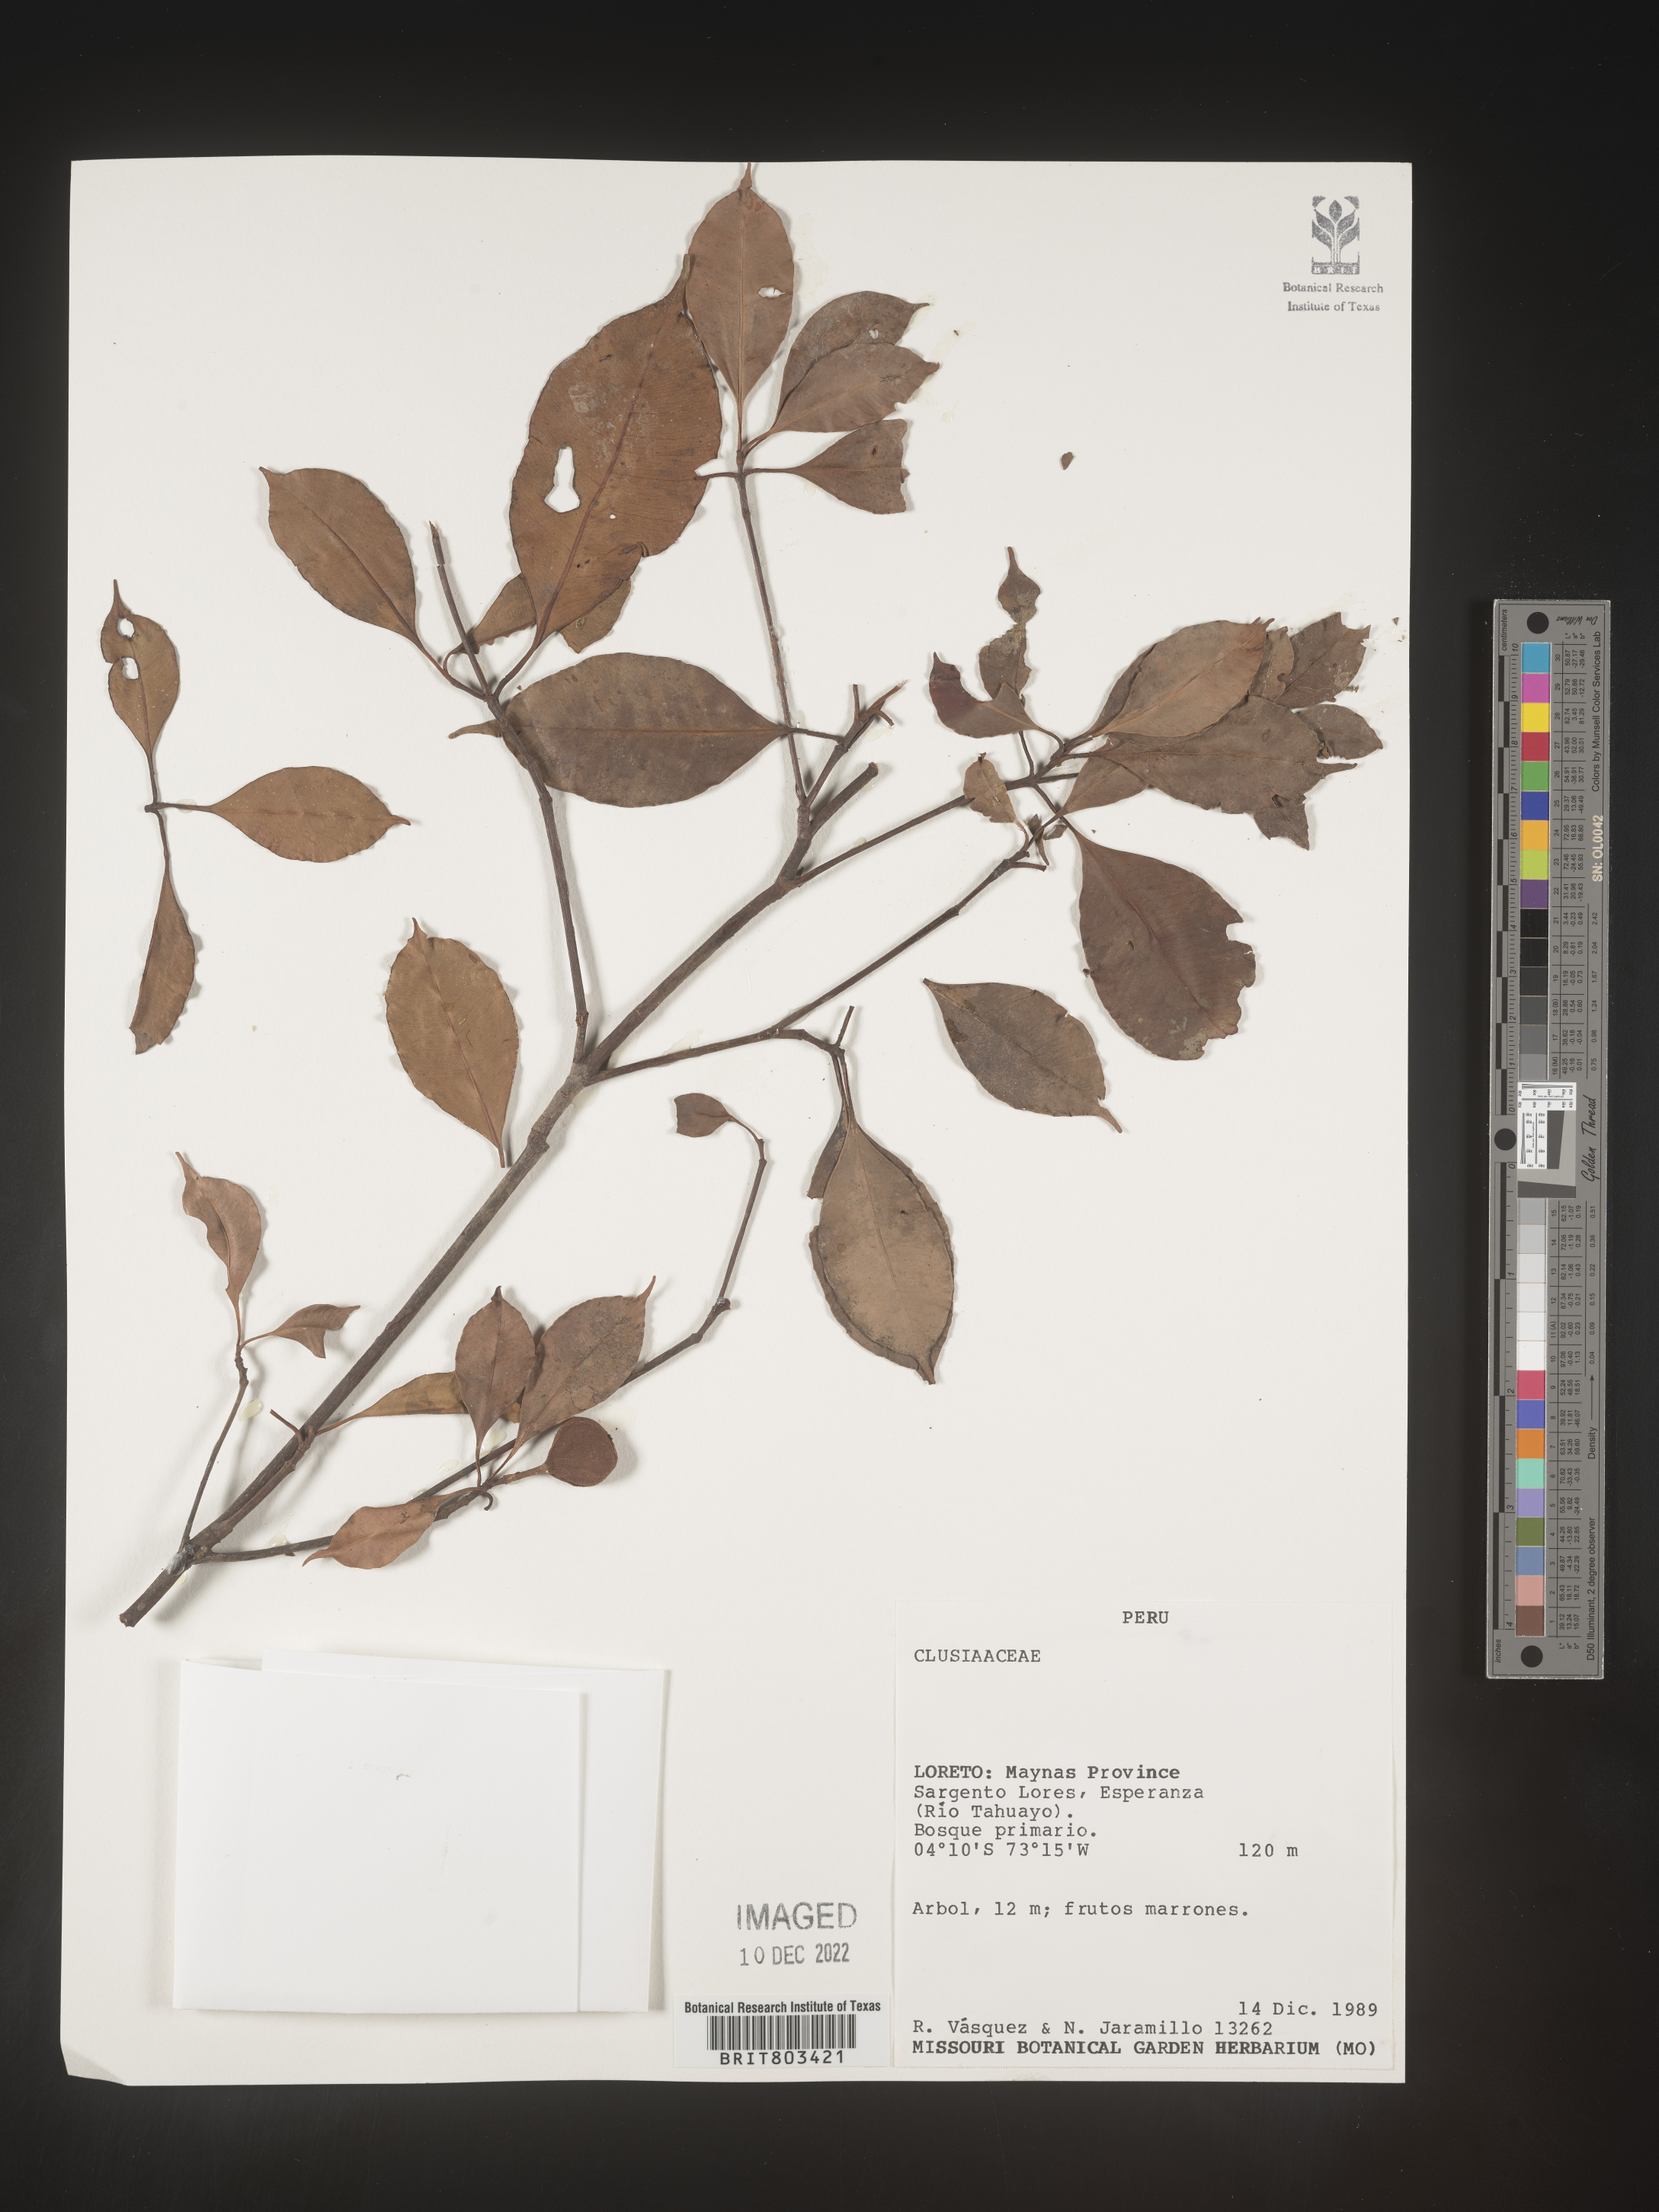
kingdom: Plantae
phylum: Tracheophyta
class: Magnoliopsida
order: Malpighiales
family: Clusiaceae
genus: Tovomita
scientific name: Tovomita
